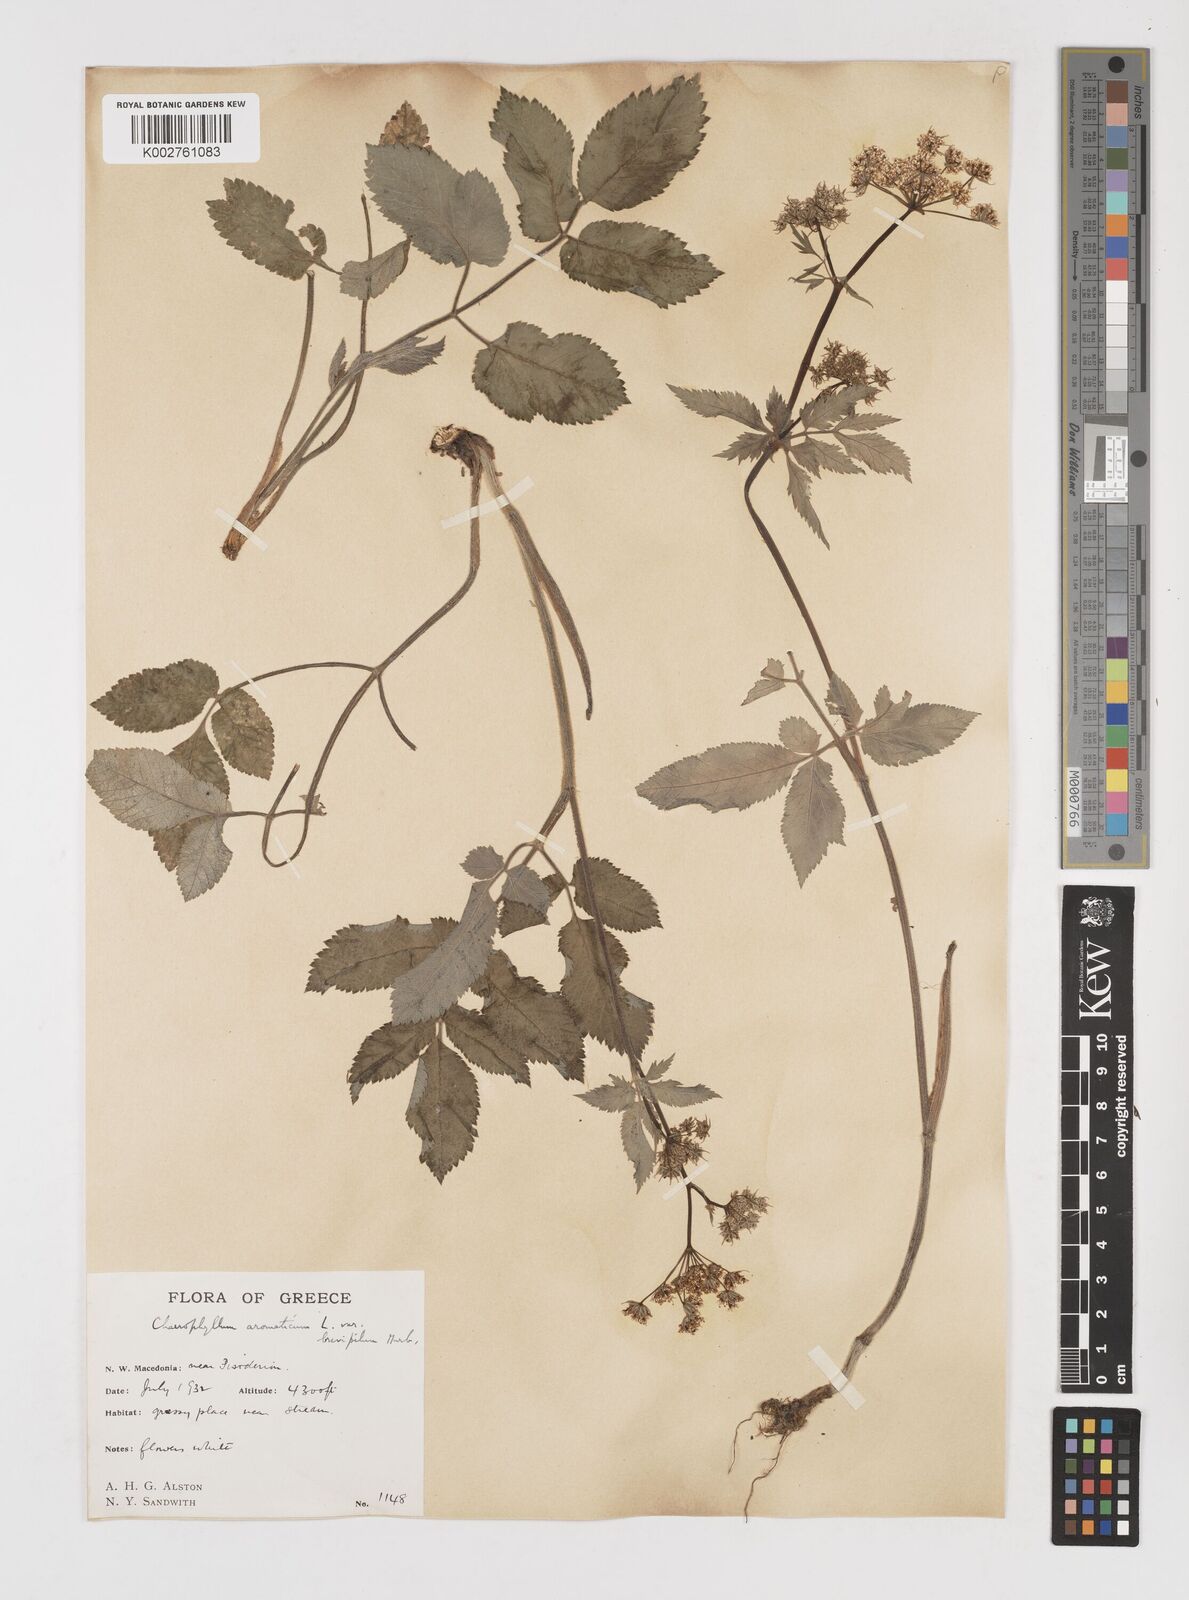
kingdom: Plantae
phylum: Tracheophyta
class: Magnoliopsida
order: Apiales
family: Apiaceae
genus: Chaerophyllum
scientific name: Chaerophyllum aromaticum
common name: Broadleaf chervil
